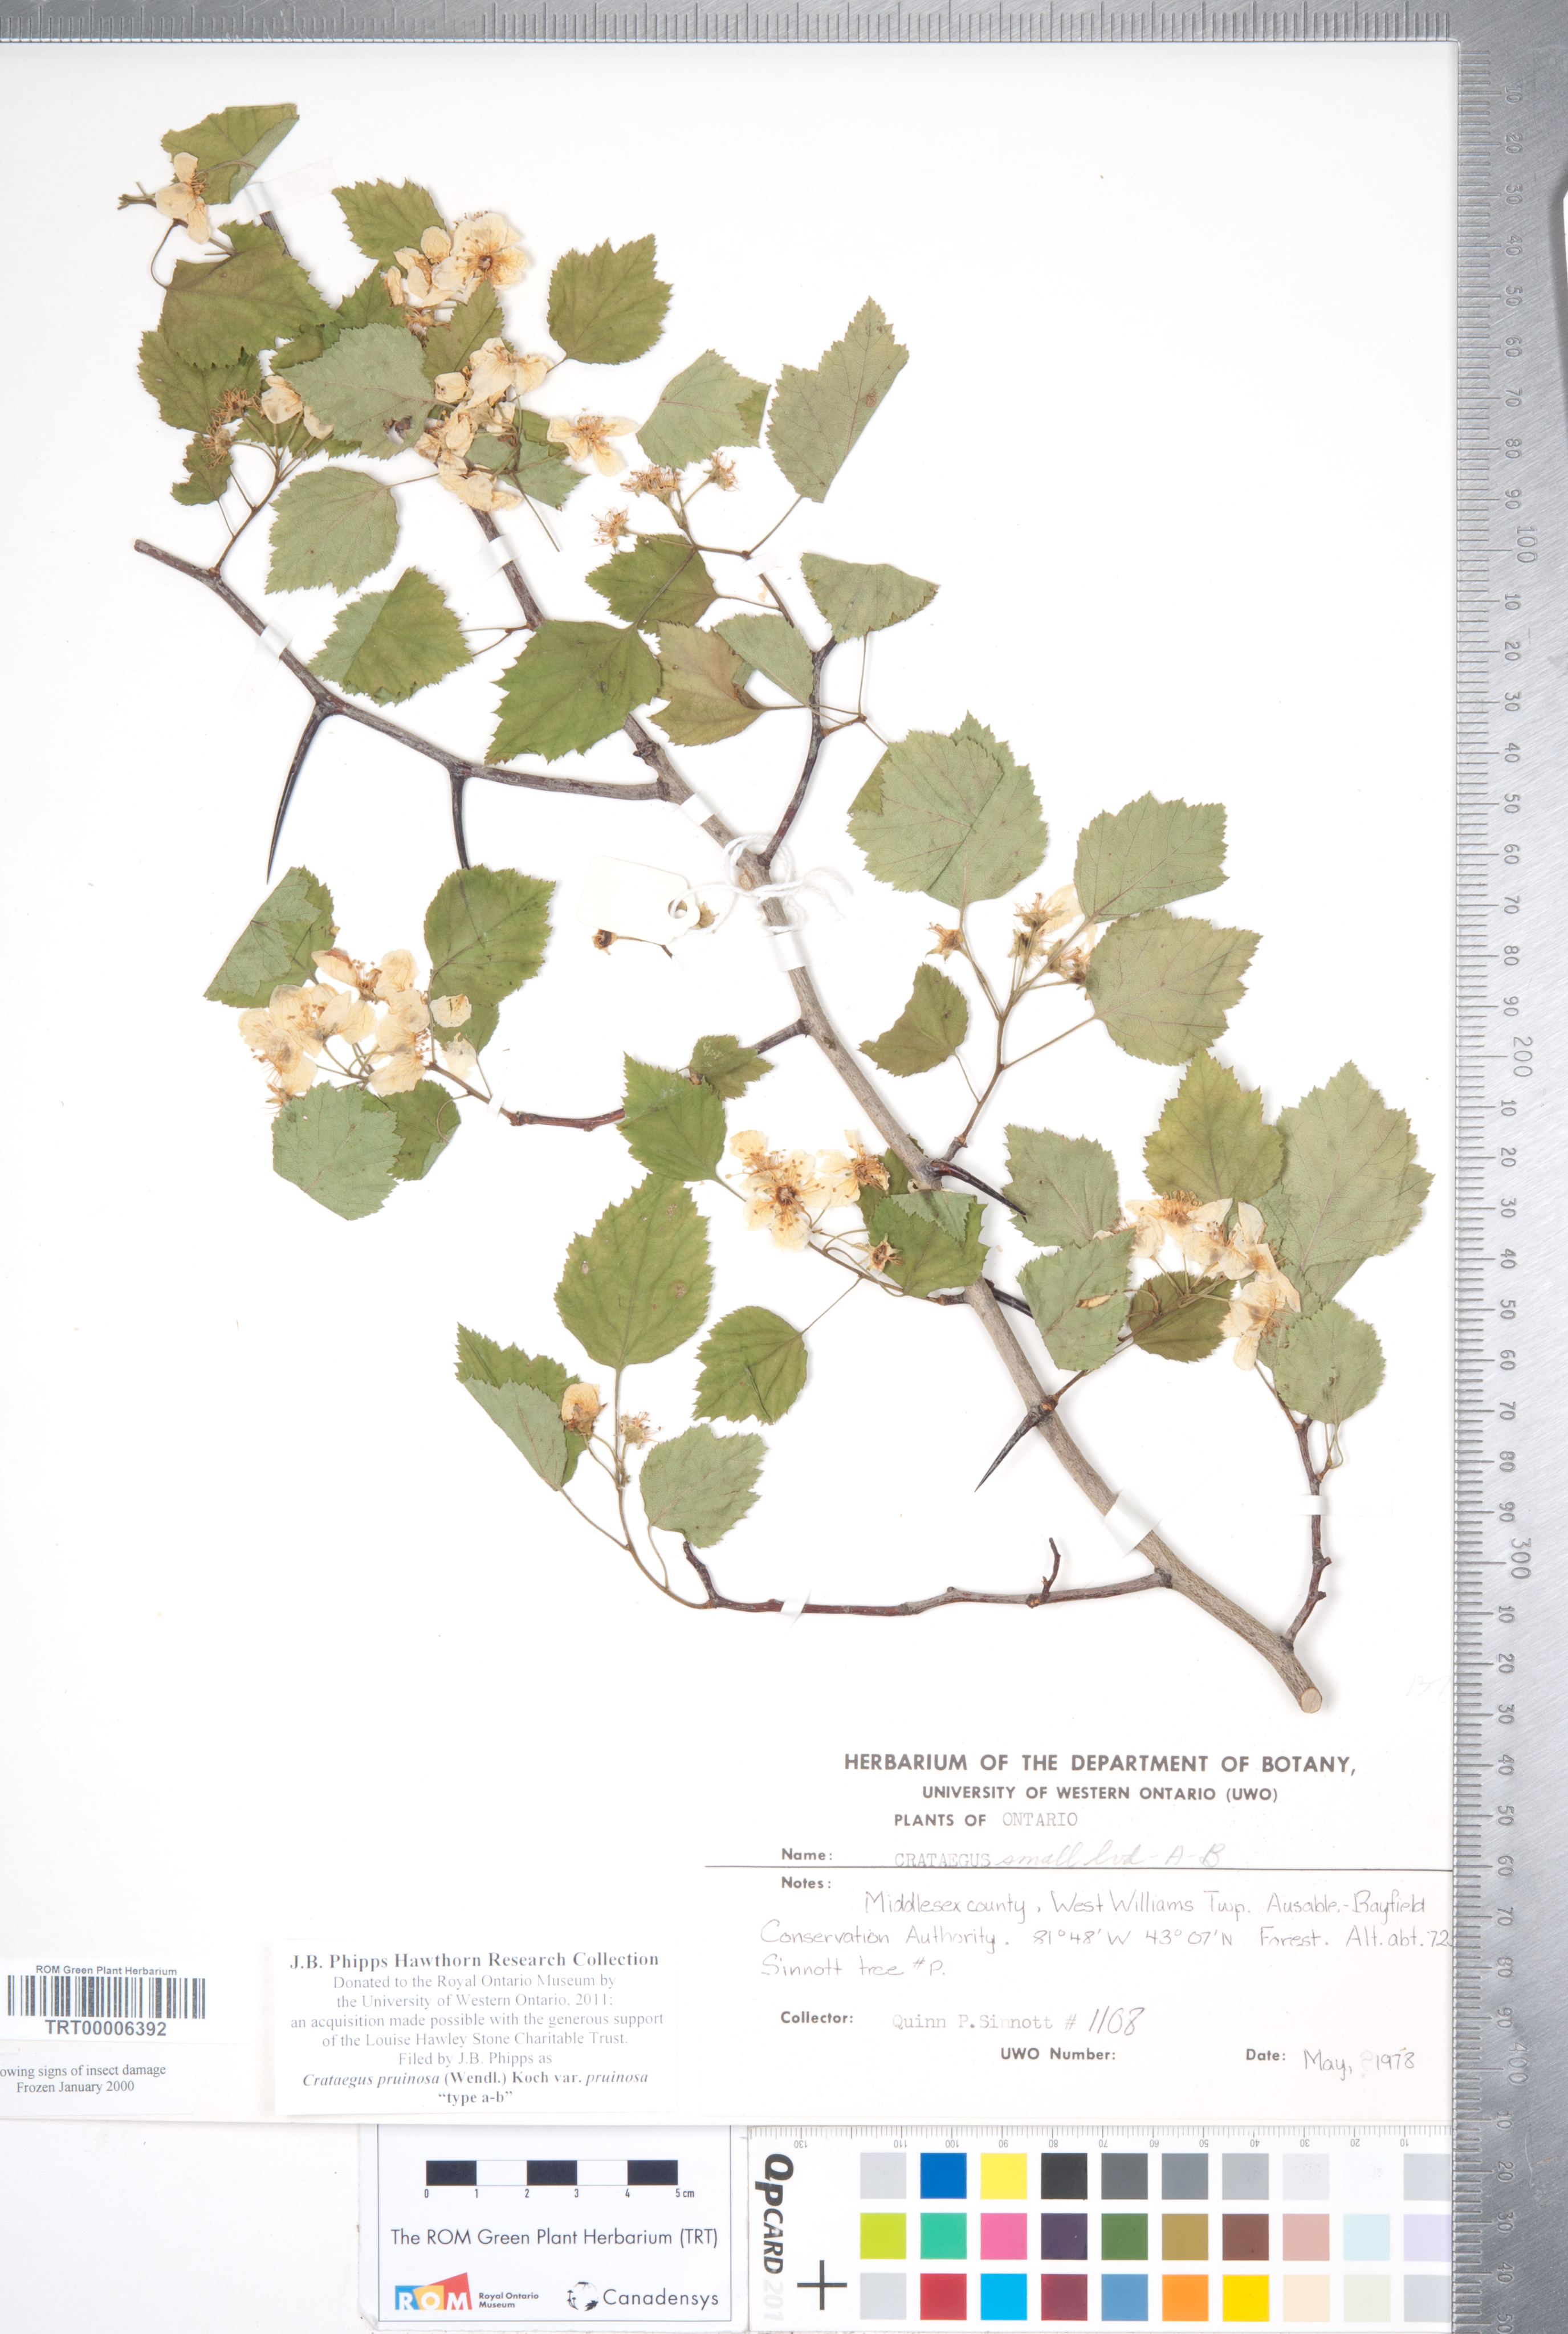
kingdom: Plantae
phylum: Tracheophyta
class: Magnoliopsida
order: Rosales
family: Rosaceae
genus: Crataegus
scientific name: Crataegus pruinosa
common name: Waxy-fruit hawthorn
